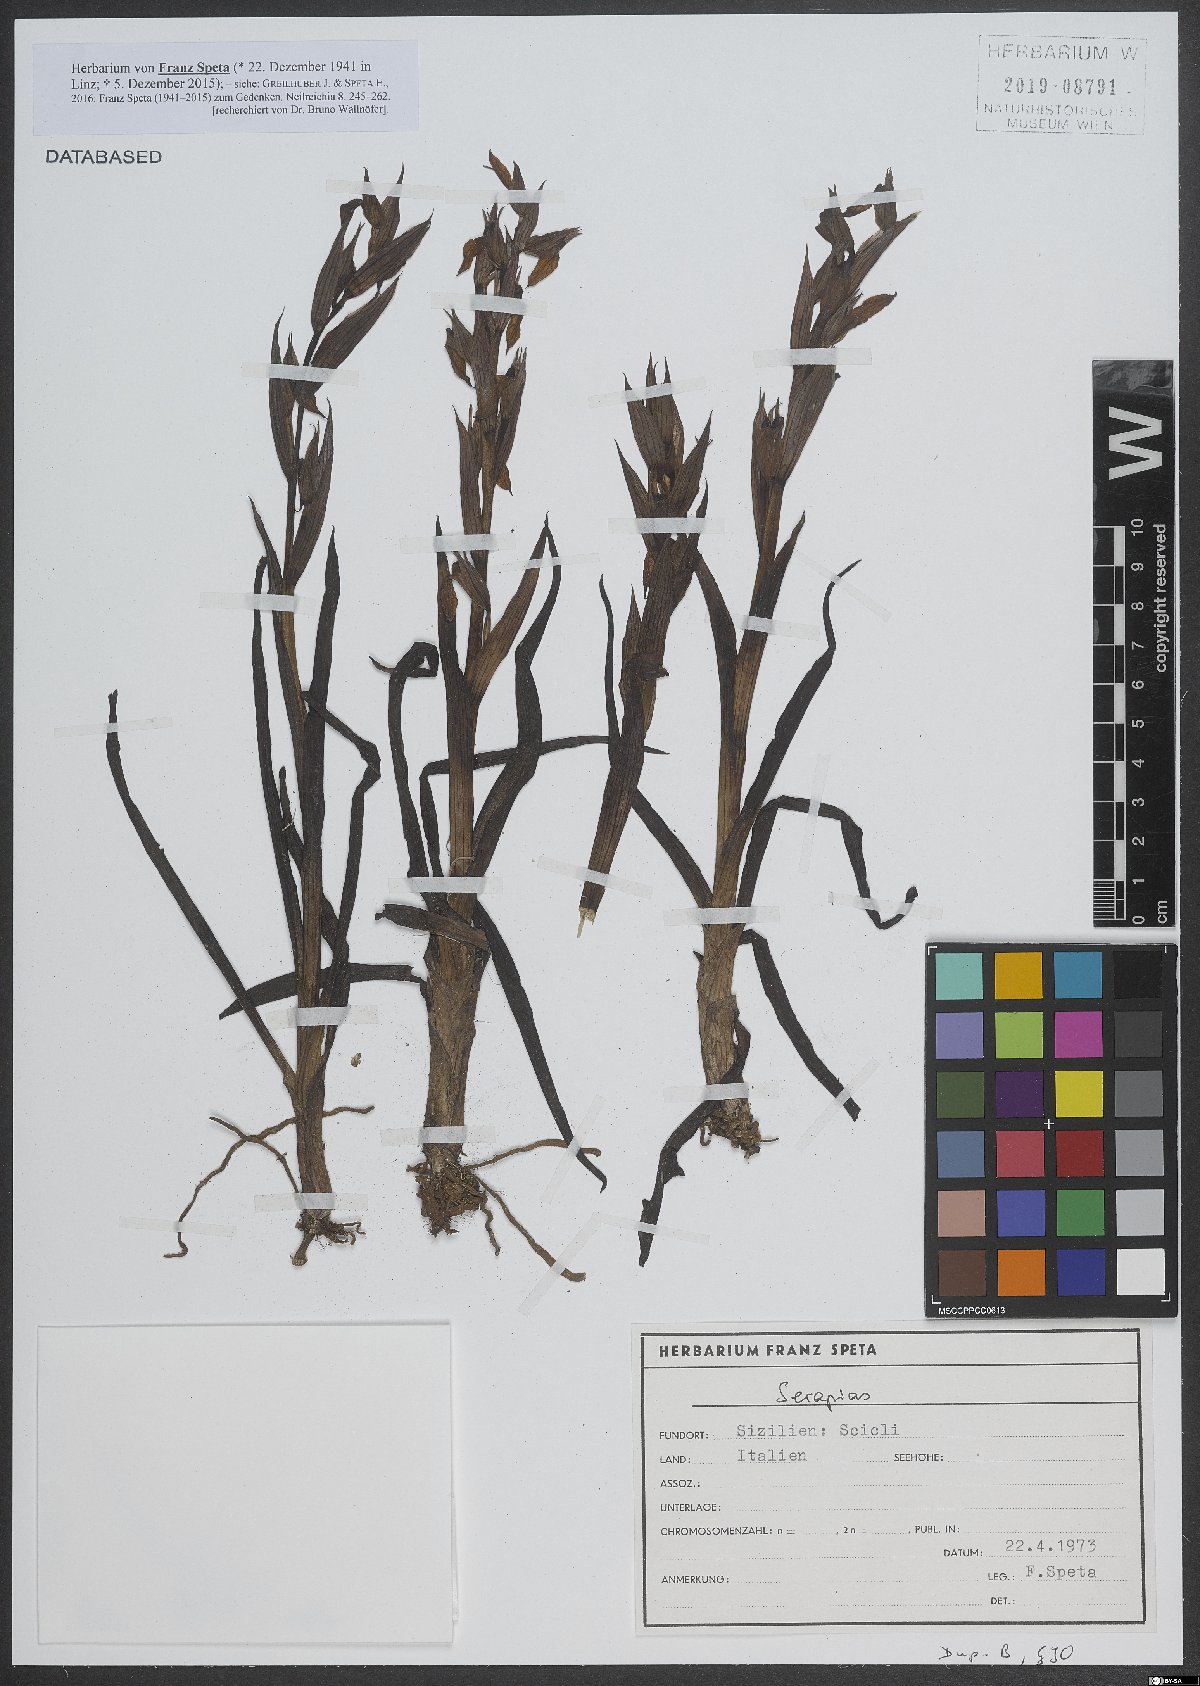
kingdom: Plantae
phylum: Tracheophyta
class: Liliopsida
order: Asparagales
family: Orchidaceae
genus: Serapias
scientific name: Serapias
